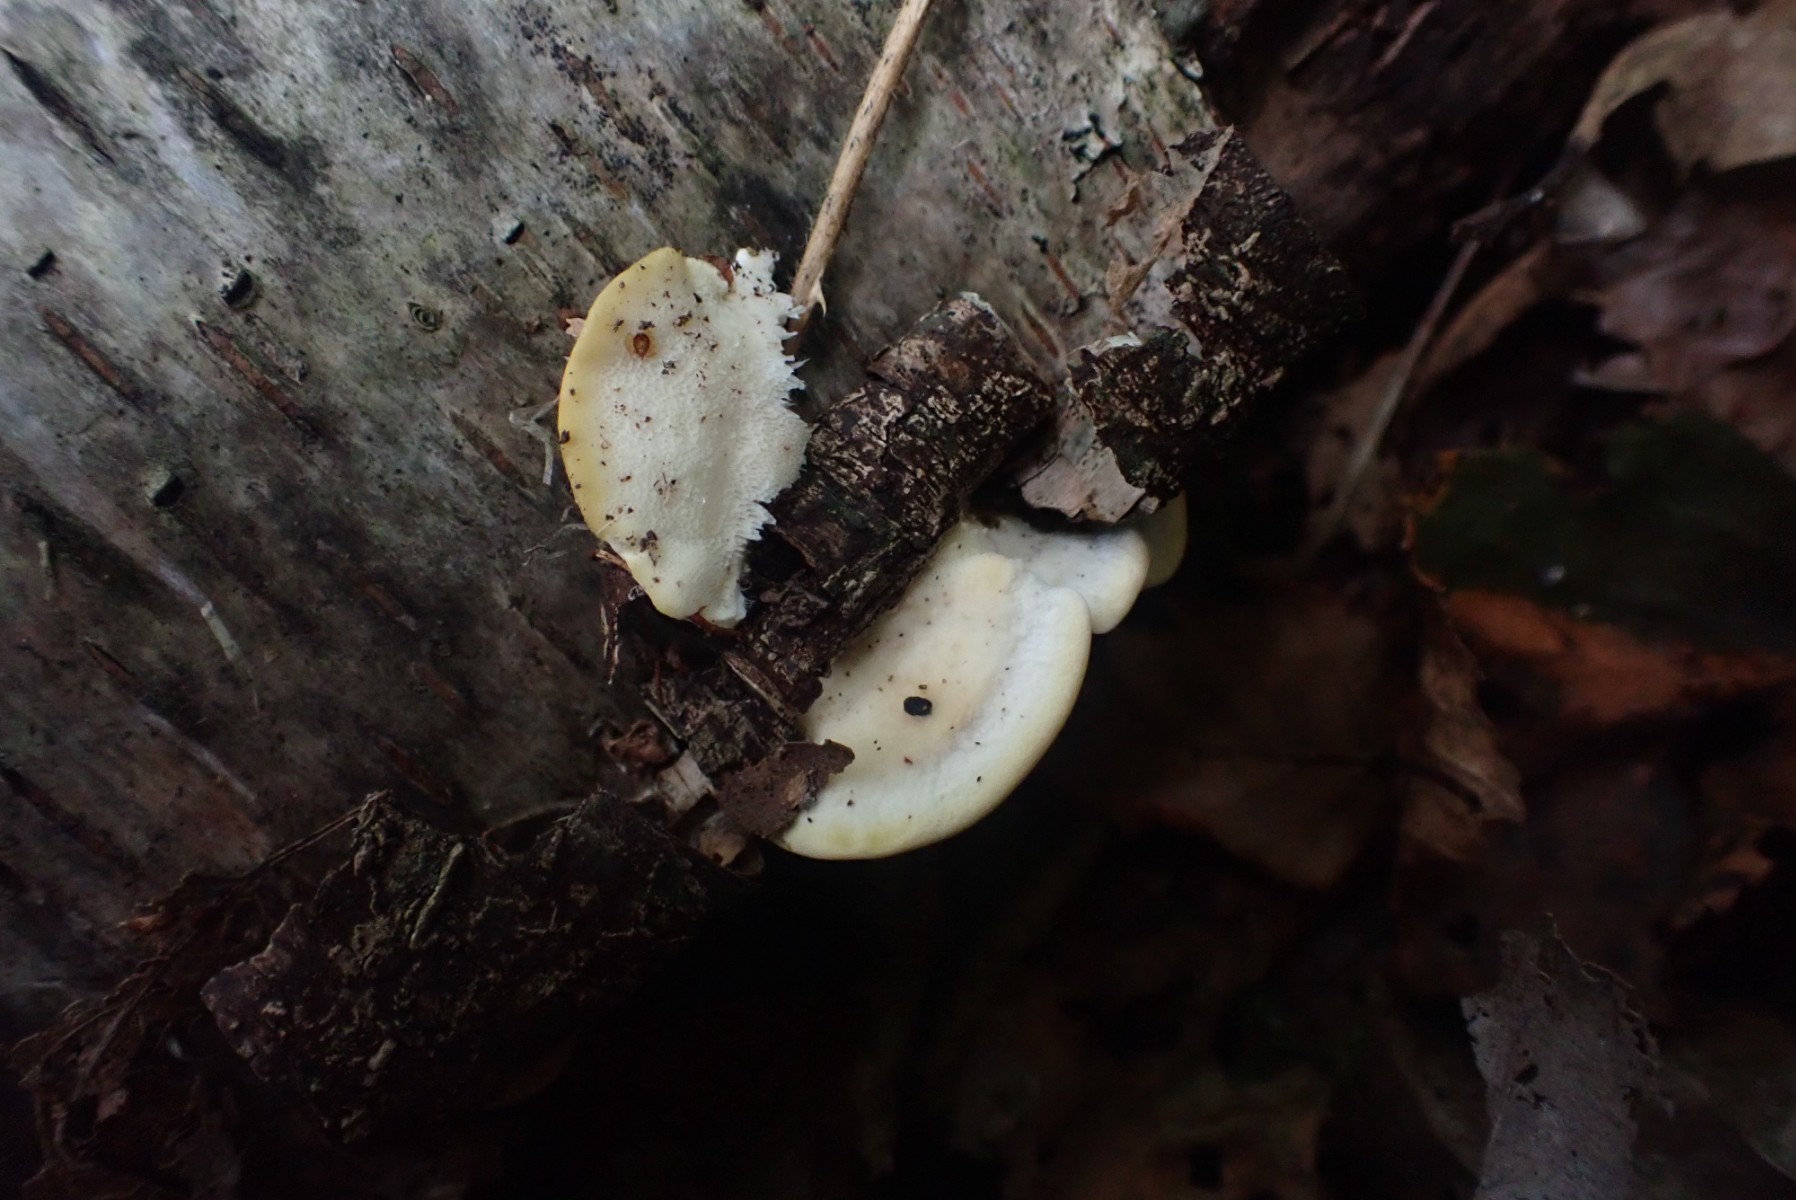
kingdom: Fungi
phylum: Basidiomycota
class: Agaricomycetes
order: Polyporales
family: Steccherinaceae
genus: Antrodiella
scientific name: Antrodiella serpula
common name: gulrandet elastikporesvamp
